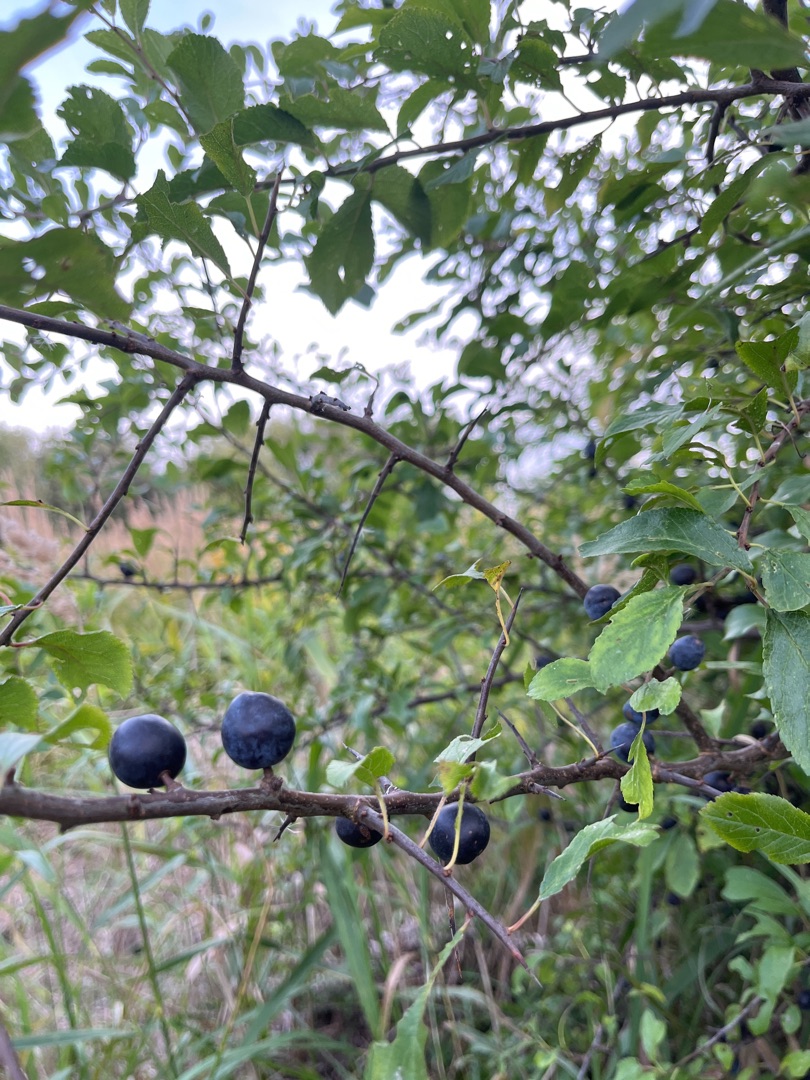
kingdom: Plantae
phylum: Tracheophyta
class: Magnoliopsida
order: Rosales
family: Rosaceae
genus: Prunus
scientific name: Prunus spinosa
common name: Slåen
